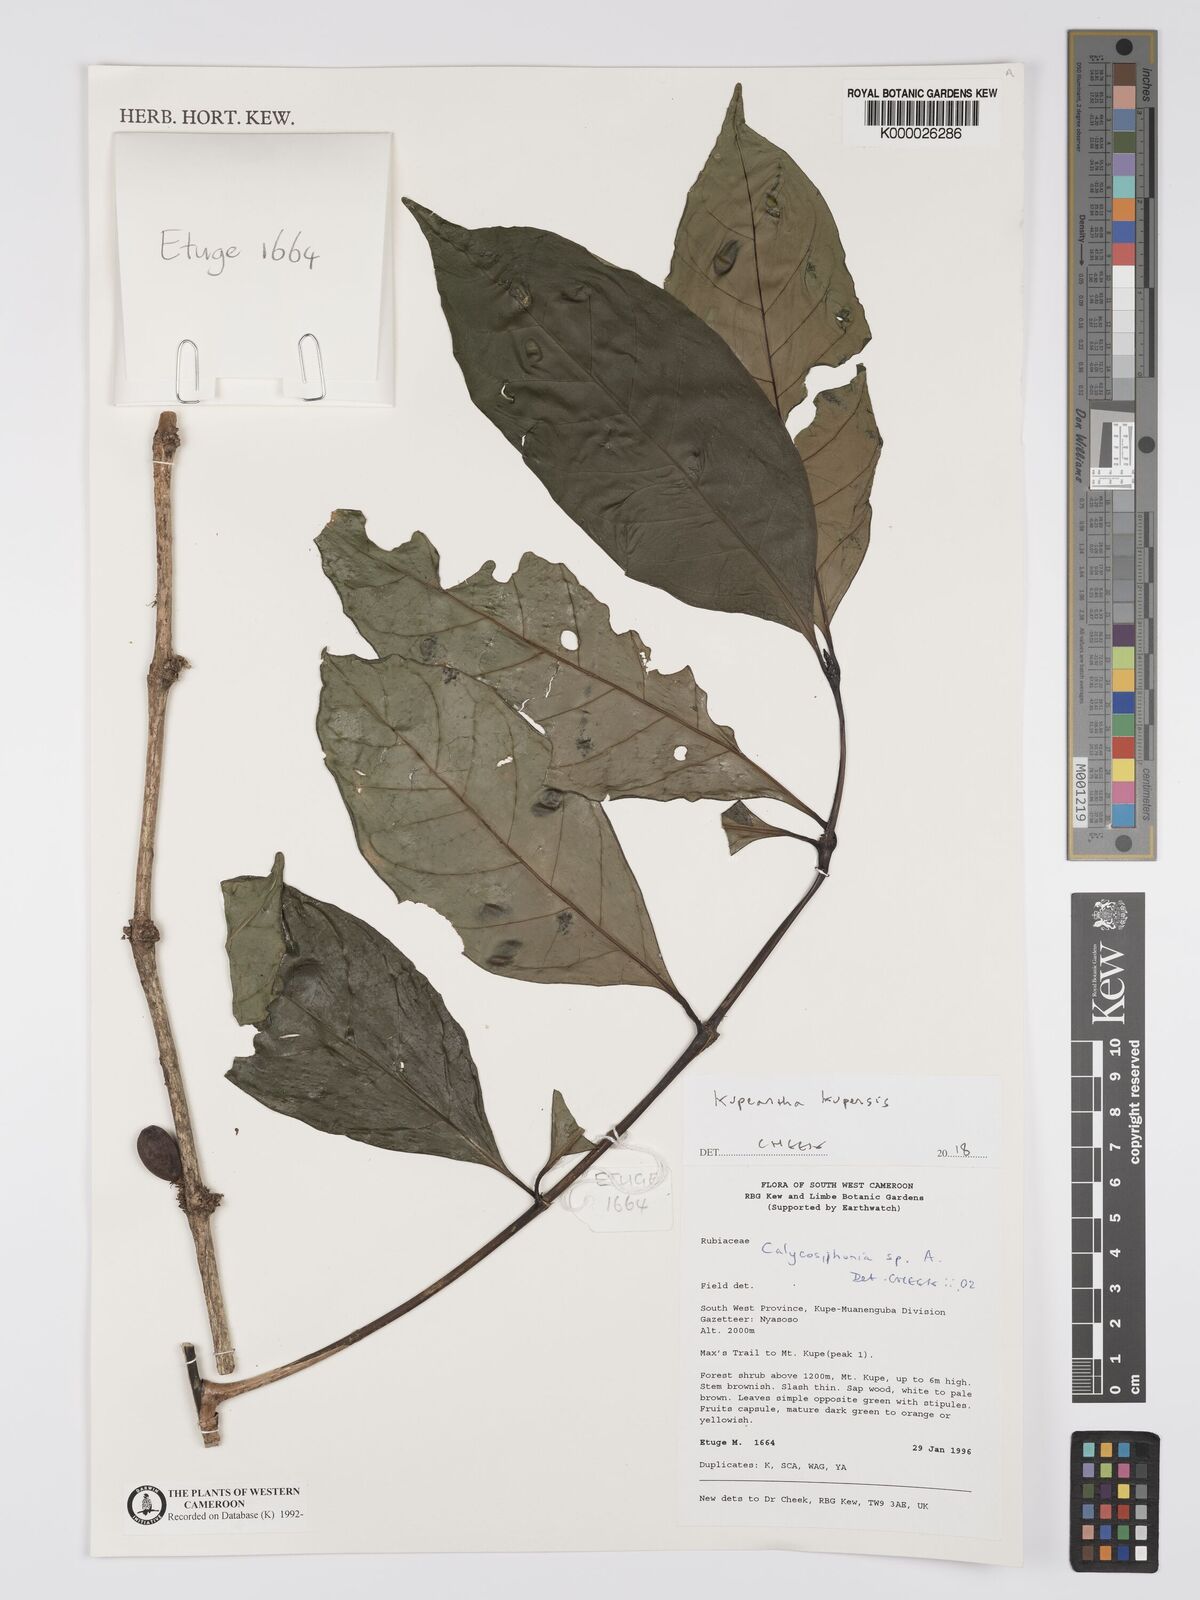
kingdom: Plantae
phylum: Tracheophyta
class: Magnoliopsida
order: Gentianales
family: Rubiaceae
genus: Argocoffeopsis
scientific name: Argocoffeopsis
